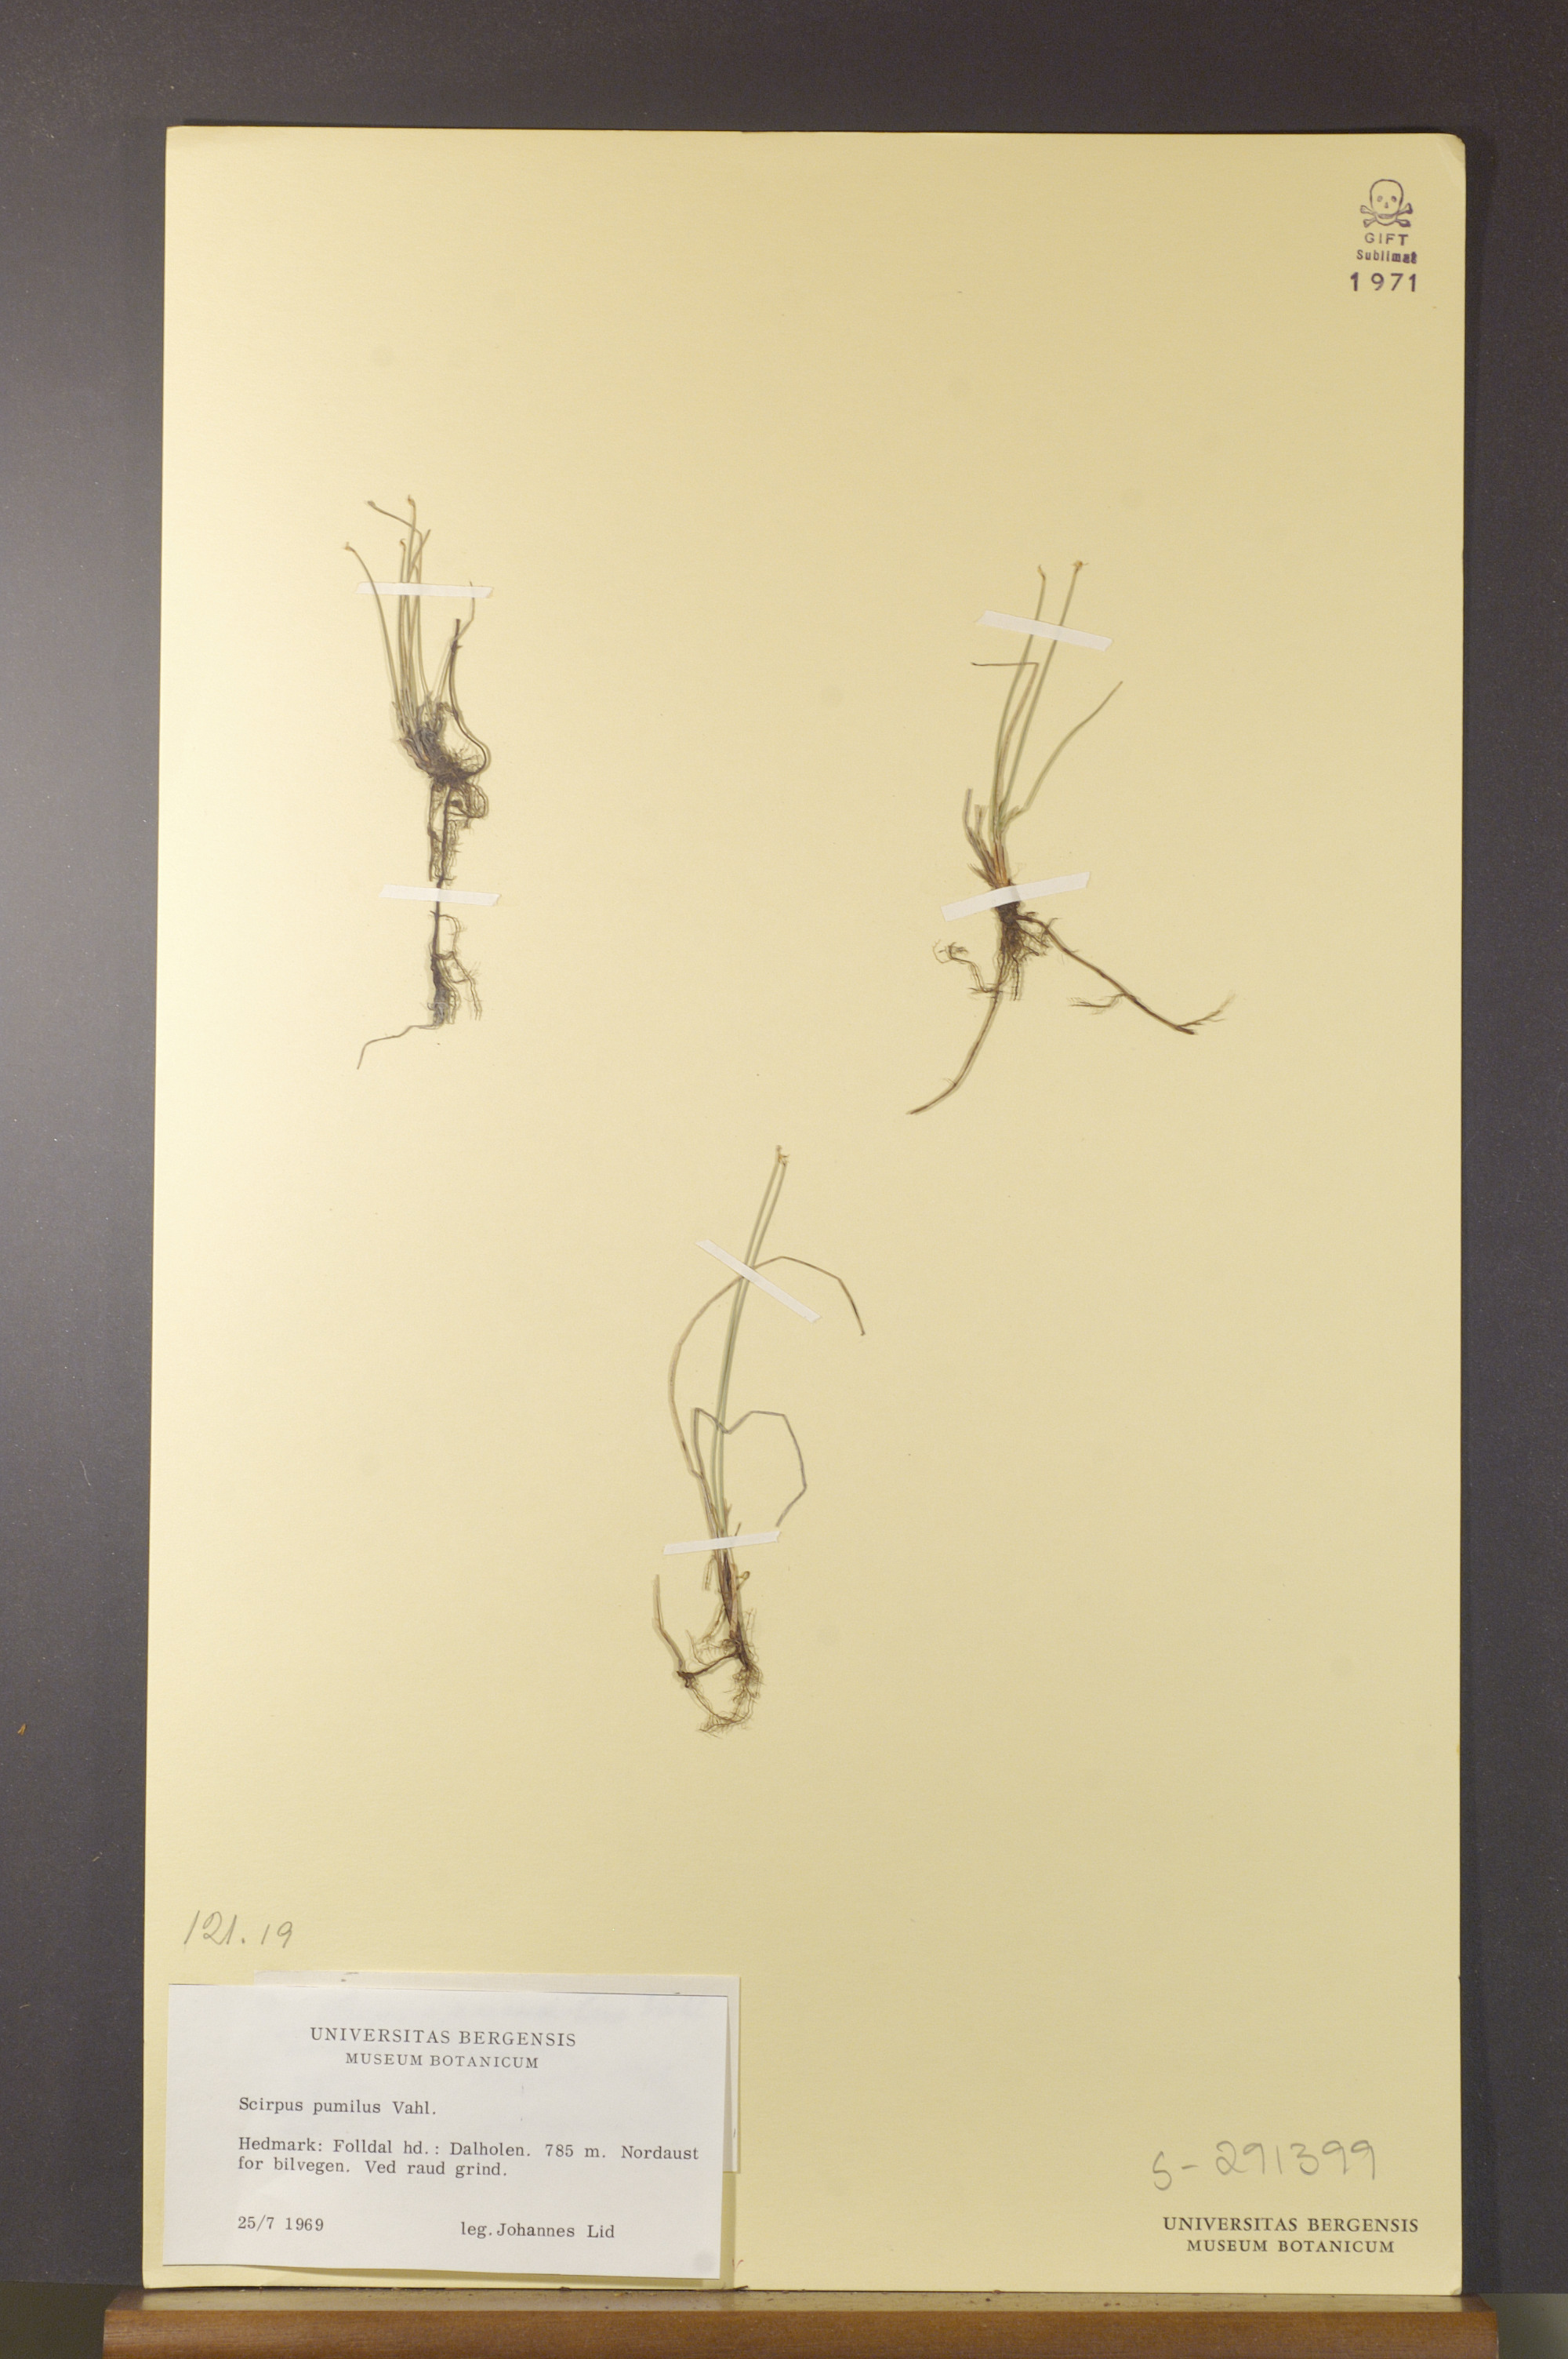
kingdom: Plantae
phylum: Tracheophyta
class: Liliopsida
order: Poales
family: Cyperaceae
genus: Trichophorum
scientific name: Trichophorum pumilum
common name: Rolland's bulrush
